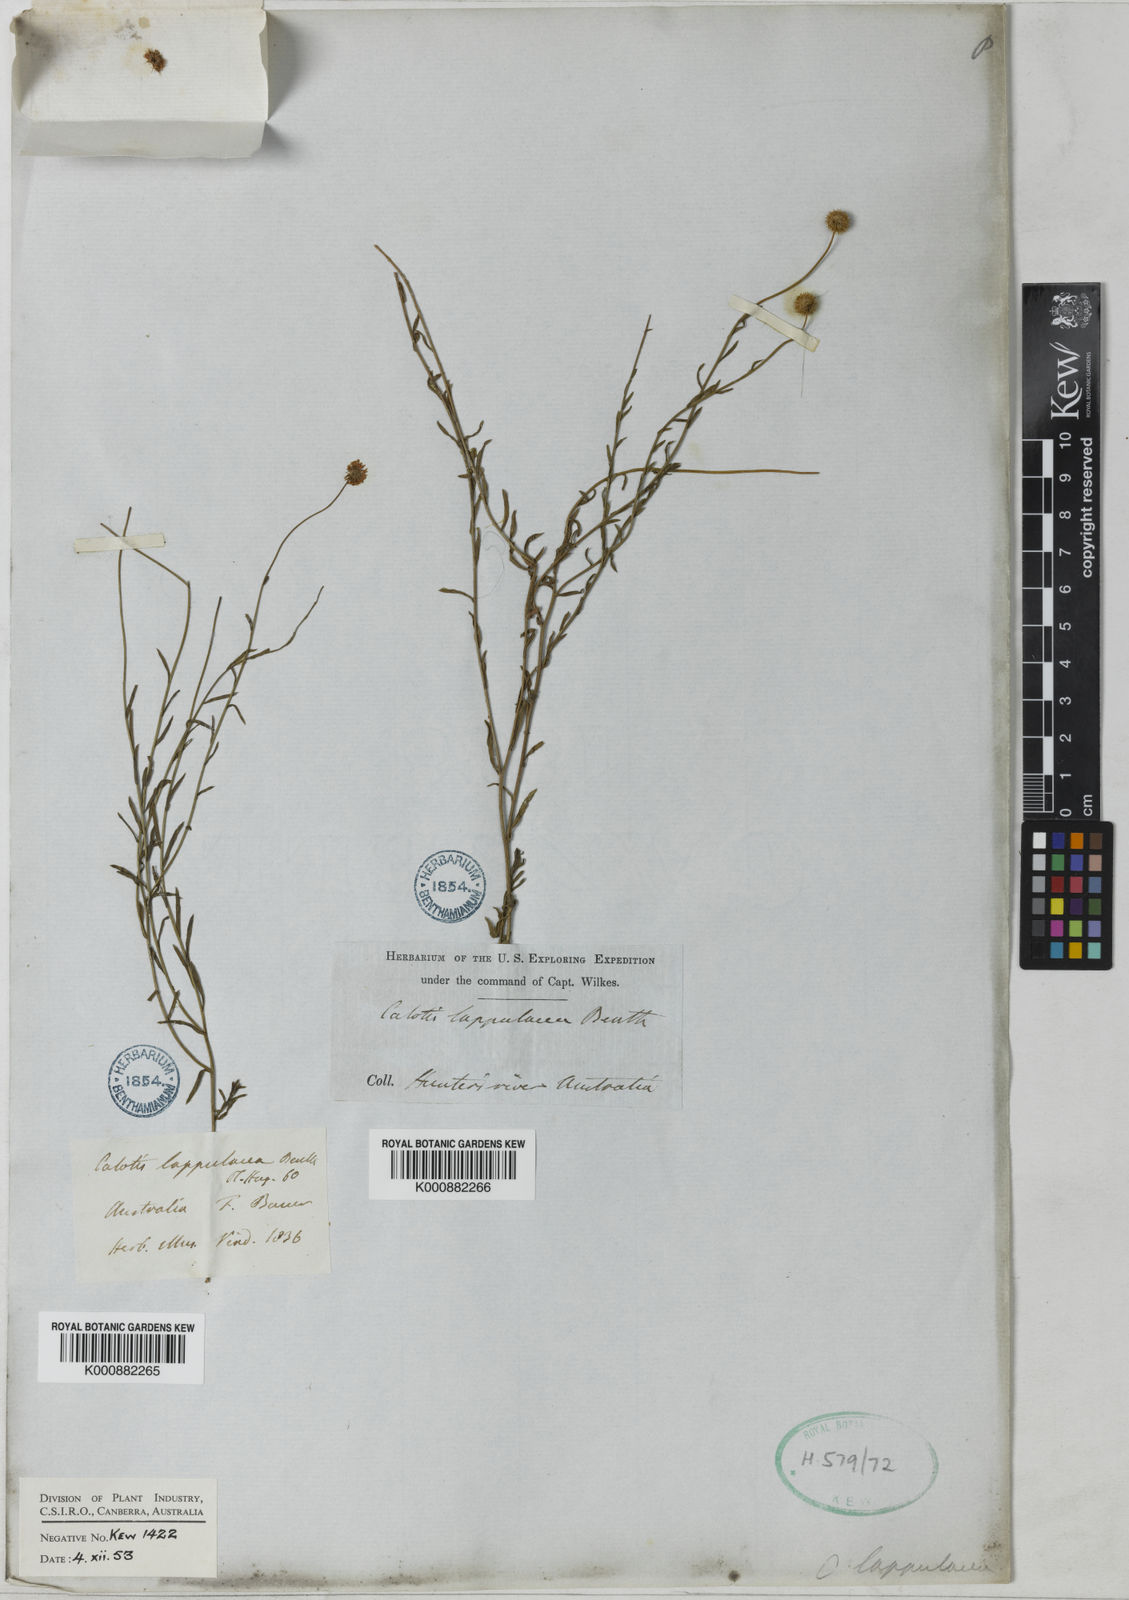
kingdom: Plantae
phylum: Tracheophyta
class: Magnoliopsida
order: Asterales
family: Asteraceae
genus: Calotis
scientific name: Calotis lappulacea
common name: Bur daisy
